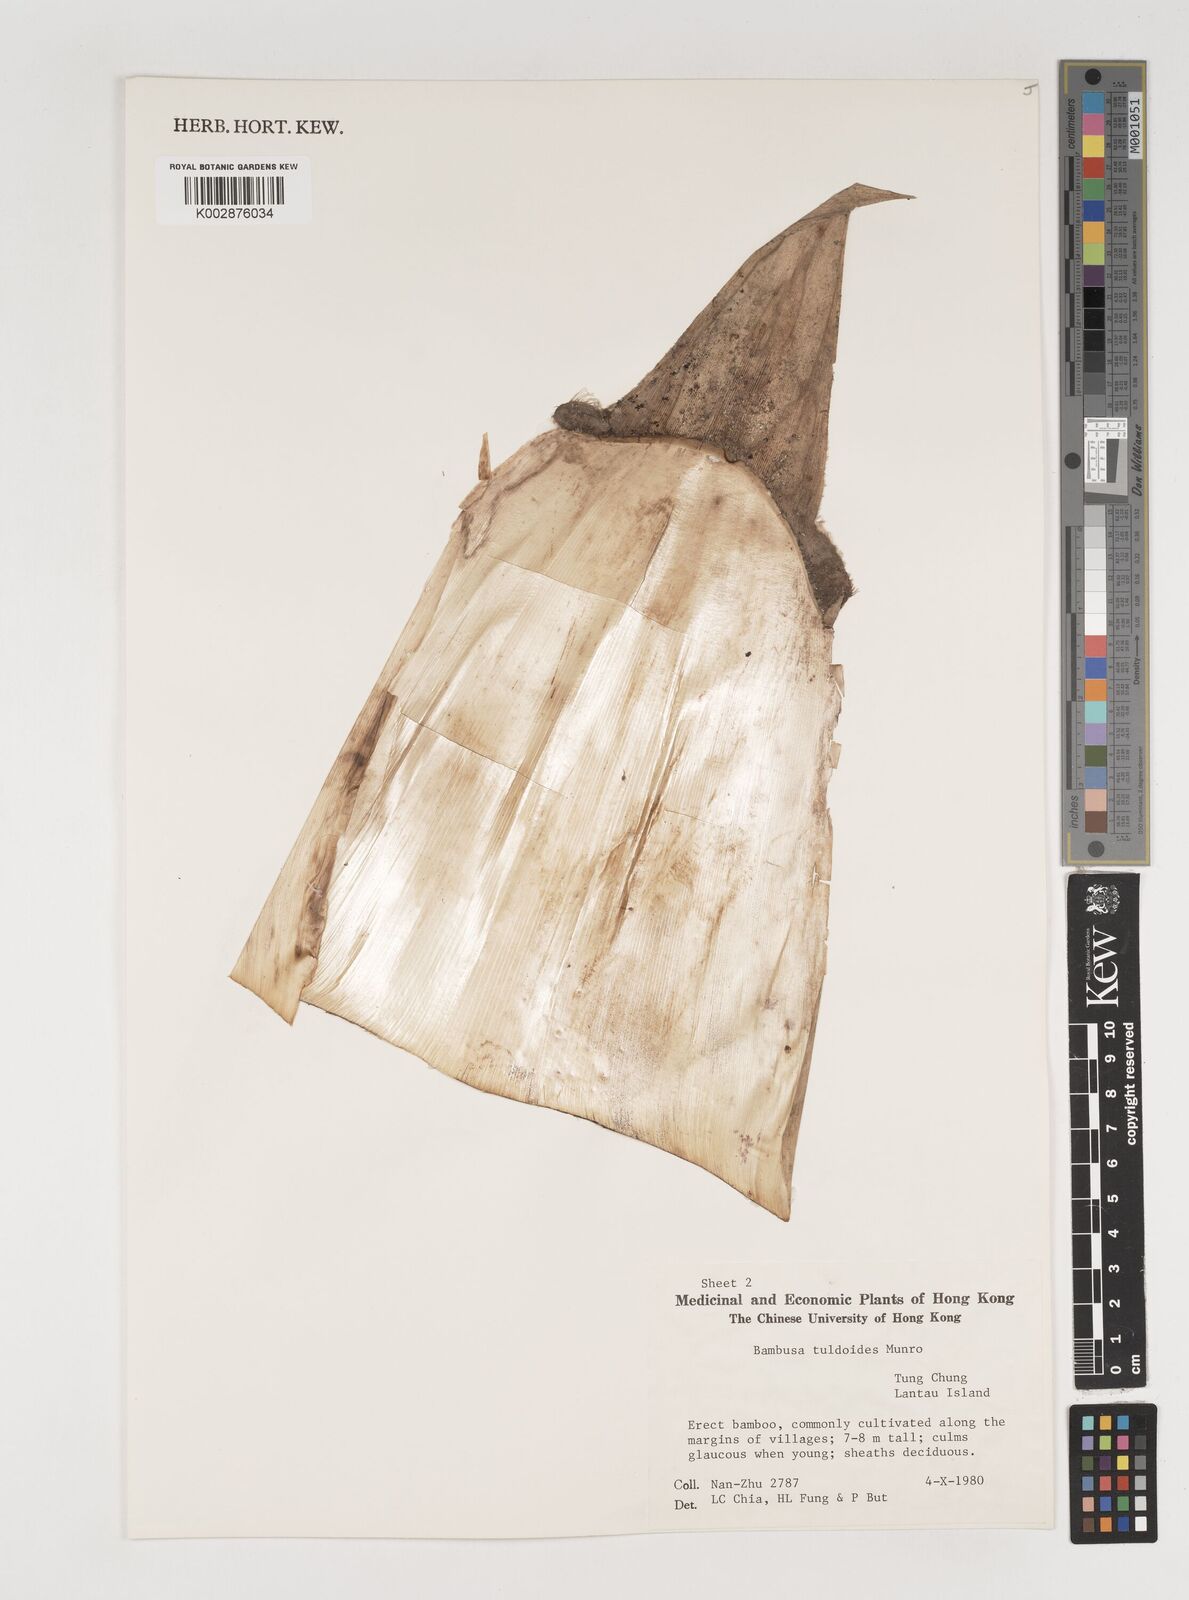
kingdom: Plantae
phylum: Tracheophyta
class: Liliopsida
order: Poales
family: Poaceae
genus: Bambusa
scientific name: Bambusa tuldoides
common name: Verdant bamboo
